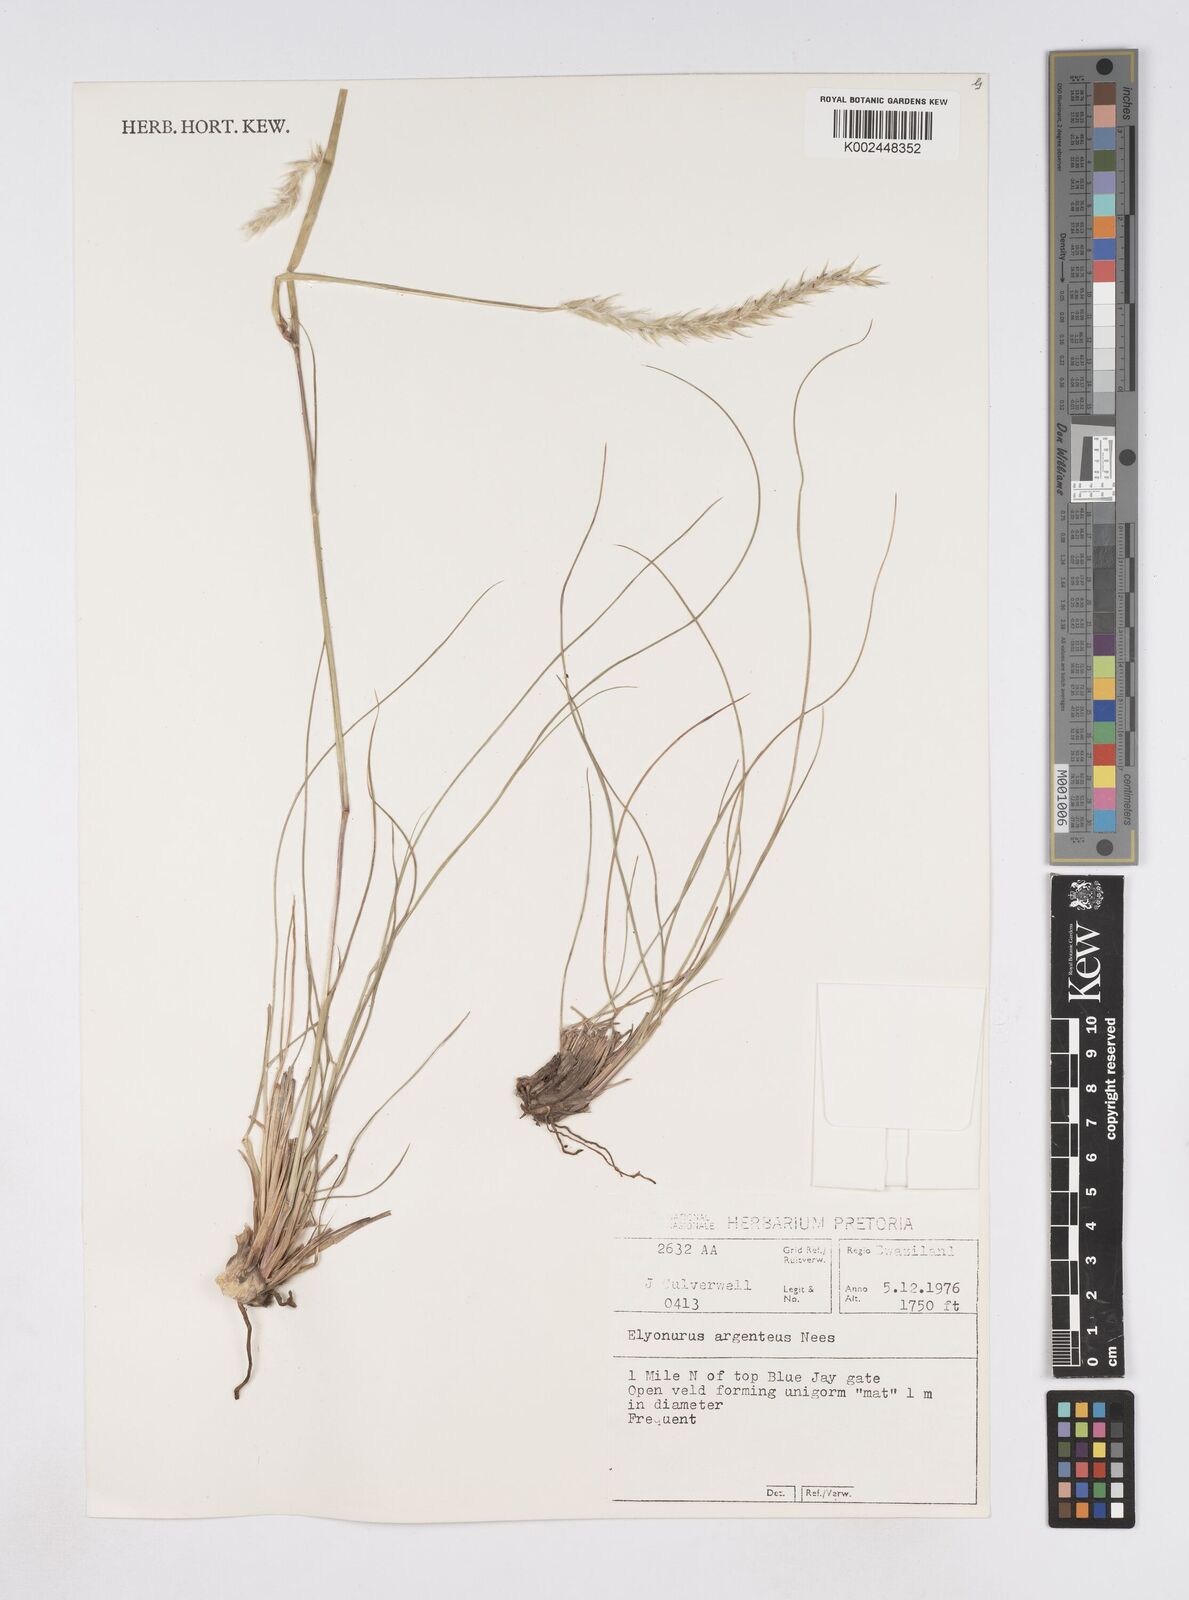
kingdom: Plantae
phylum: Tracheophyta
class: Liliopsida
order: Poales
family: Poaceae
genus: Elionurus
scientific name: Elionurus muticus
